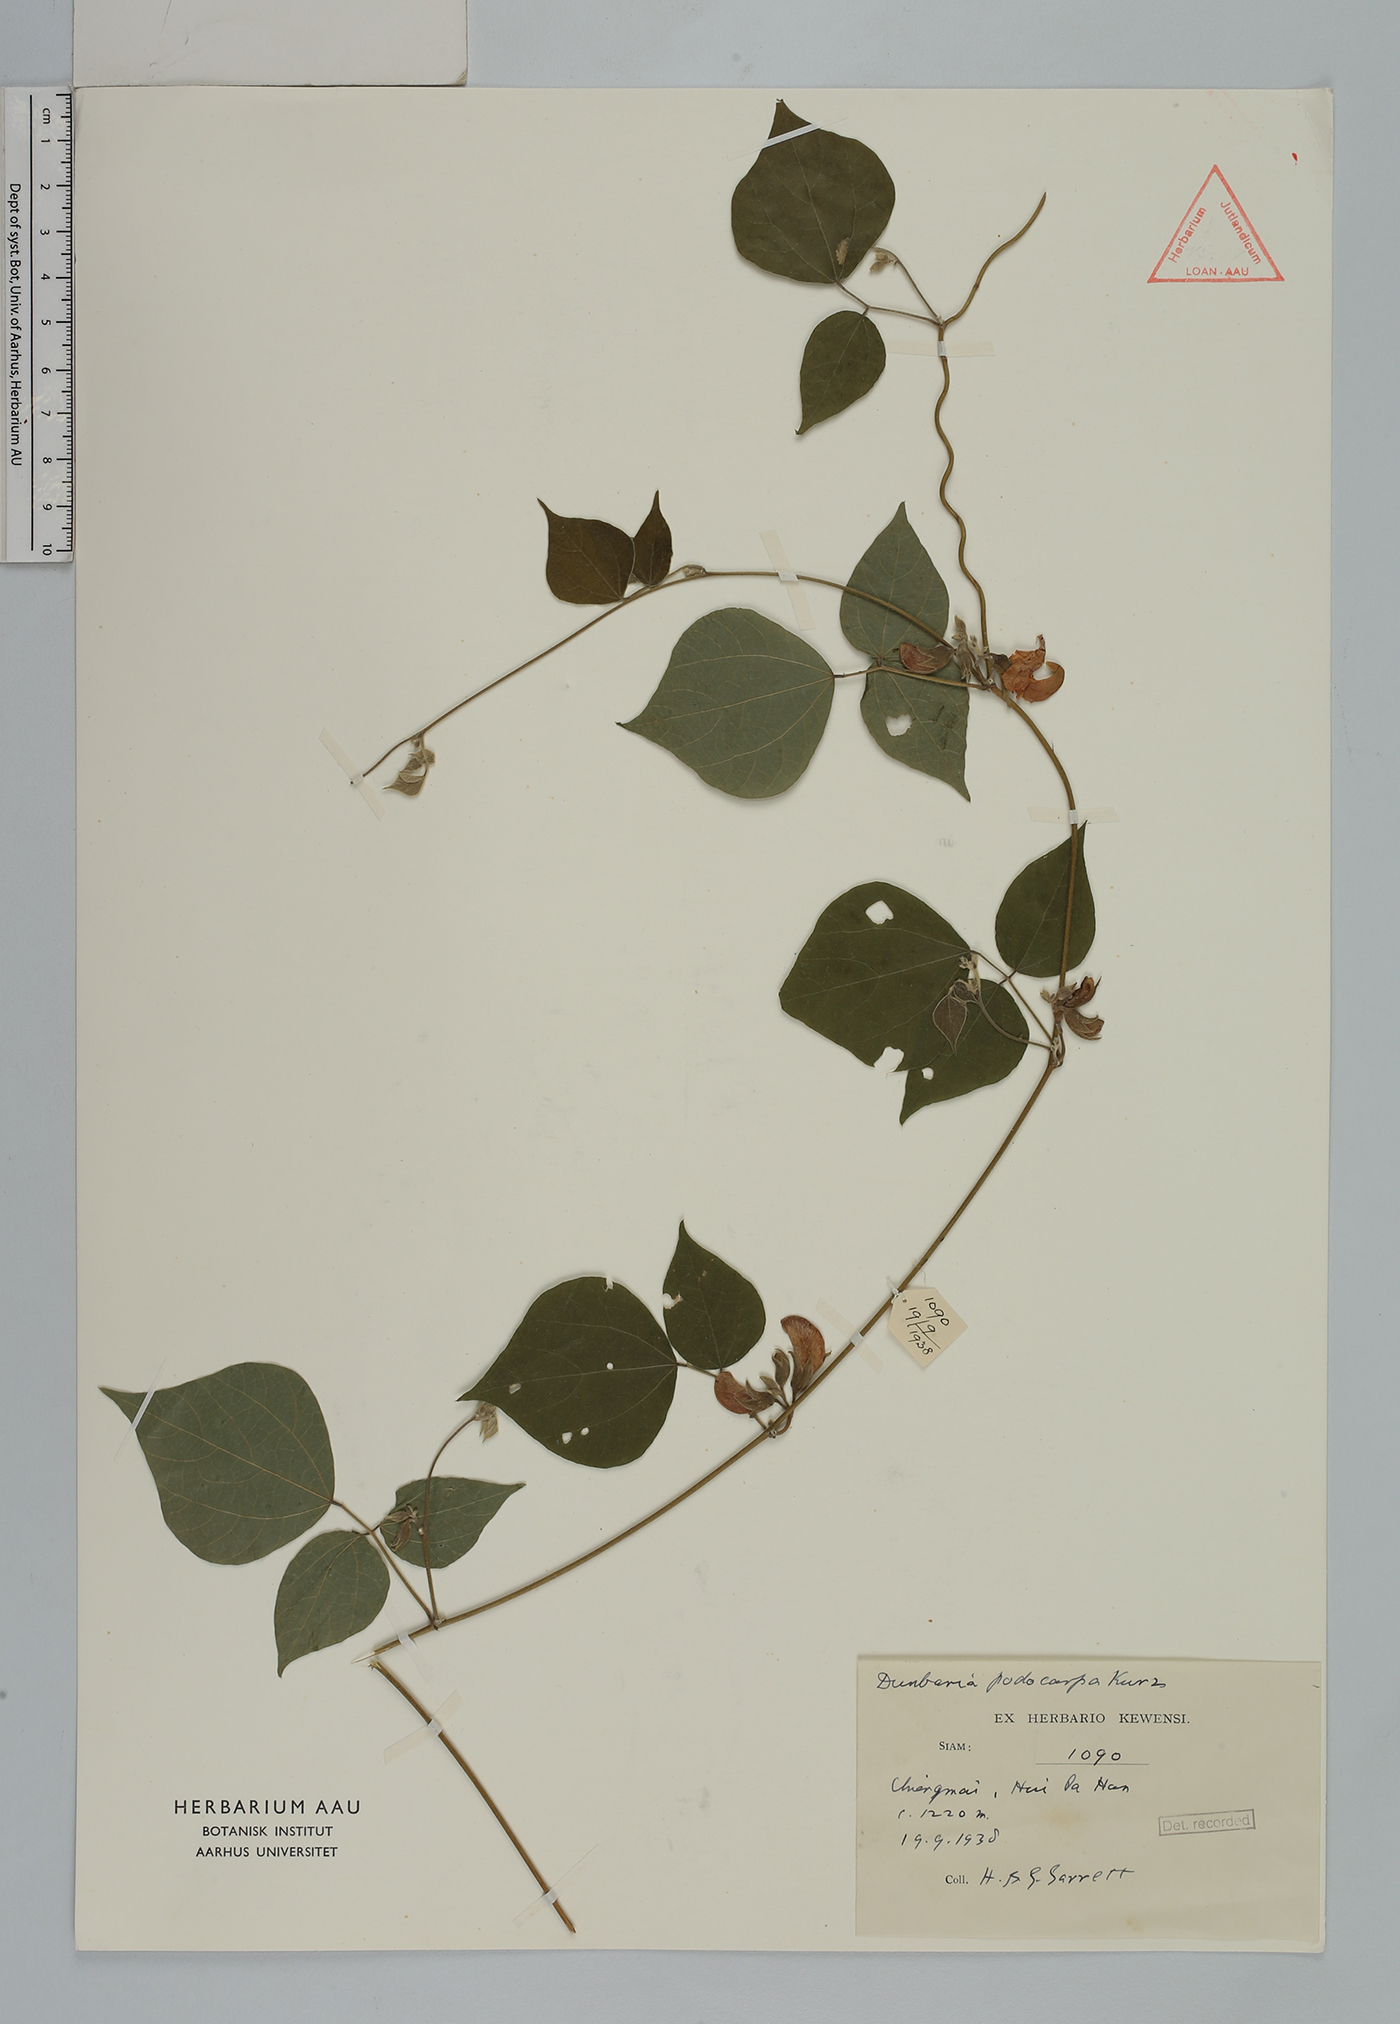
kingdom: Plantae
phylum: Tracheophyta
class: Magnoliopsida
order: Fabales
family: Fabaceae
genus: Dunbaria
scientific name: Dunbaria podocarpa
